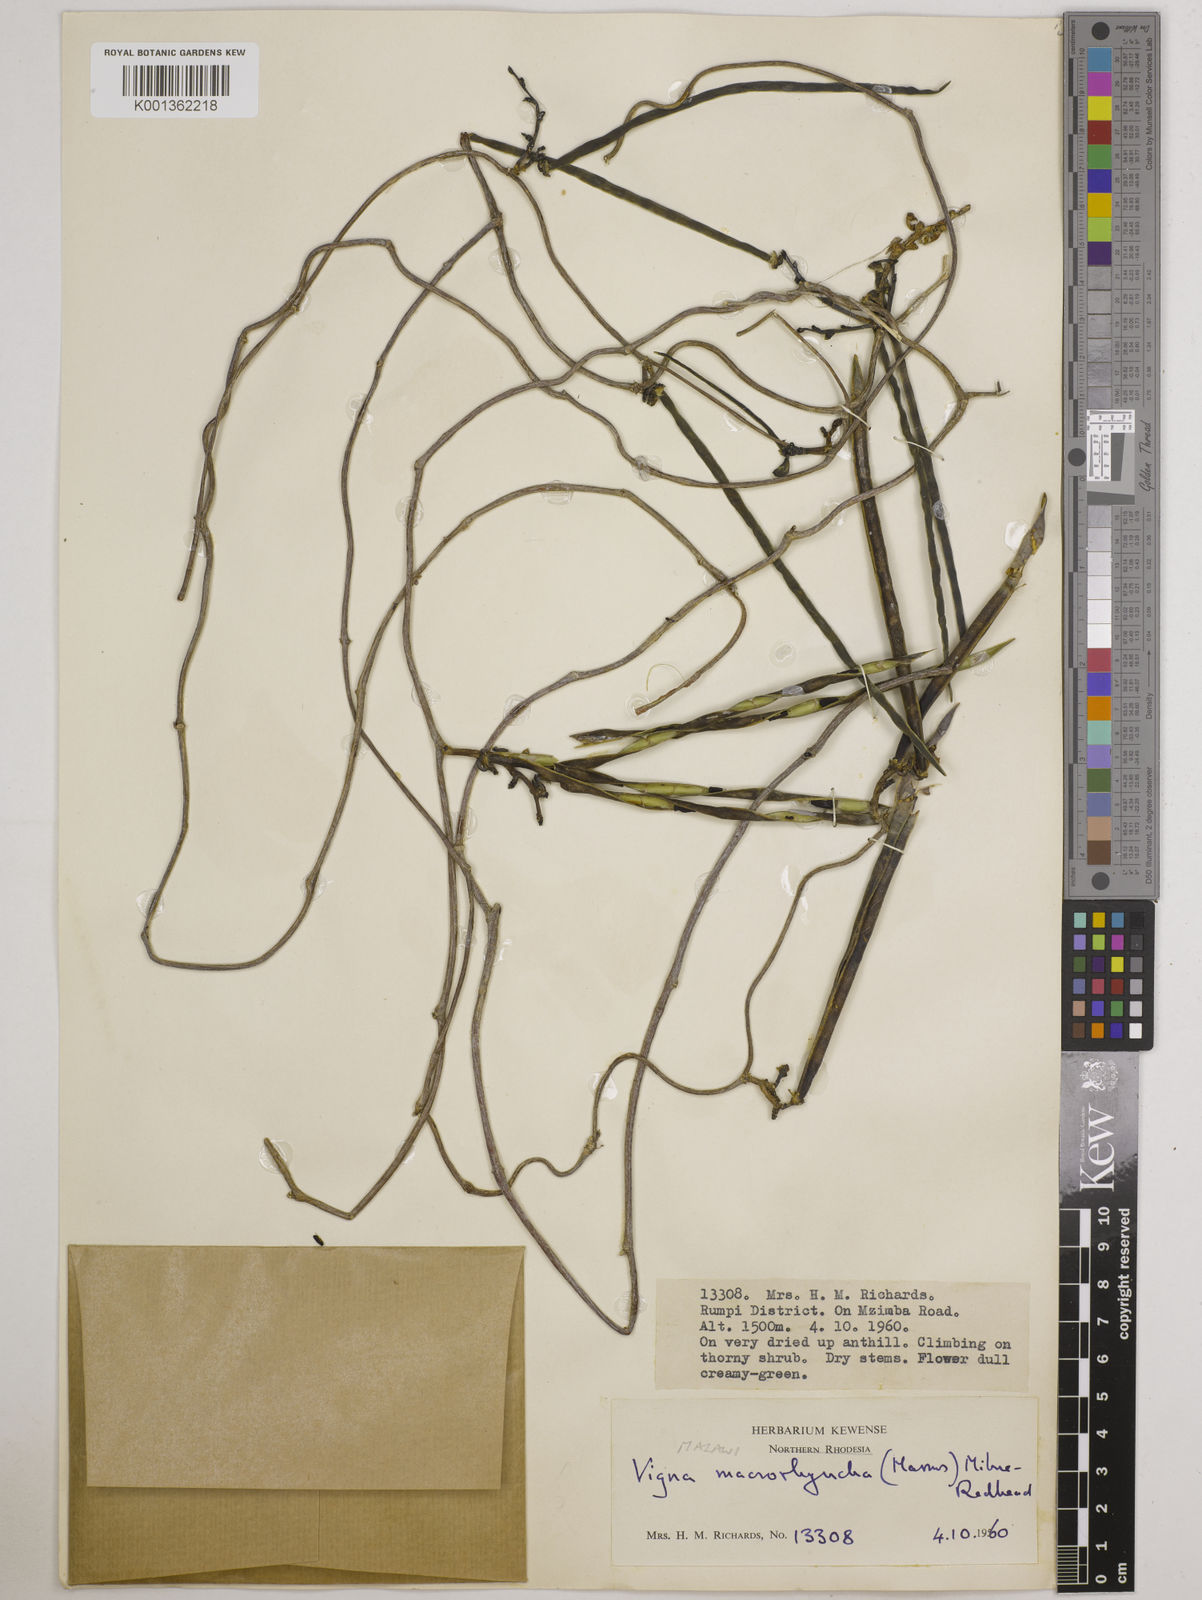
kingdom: Plantae
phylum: Tracheophyta
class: Magnoliopsida
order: Fabales
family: Fabaceae
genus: Wajira
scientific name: Wajira grahamiana
